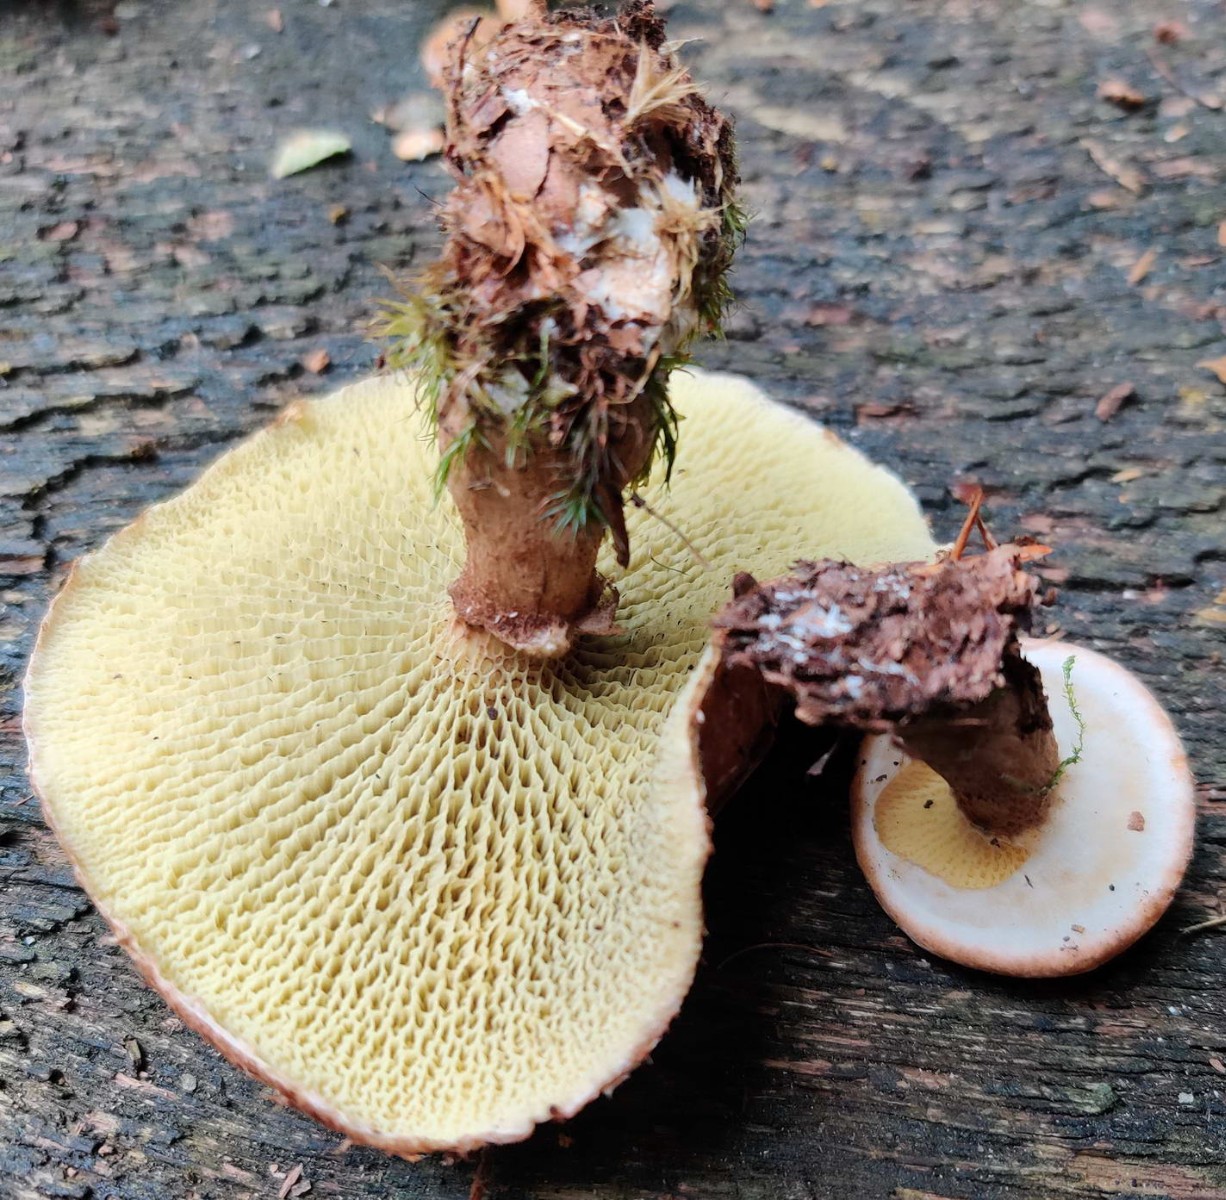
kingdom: Fungi
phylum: Basidiomycota
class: Agaricomycetes
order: Boletales
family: Suillaceae
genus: Suillus
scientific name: Suillus cavipes
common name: hulstokket slimrørhat
